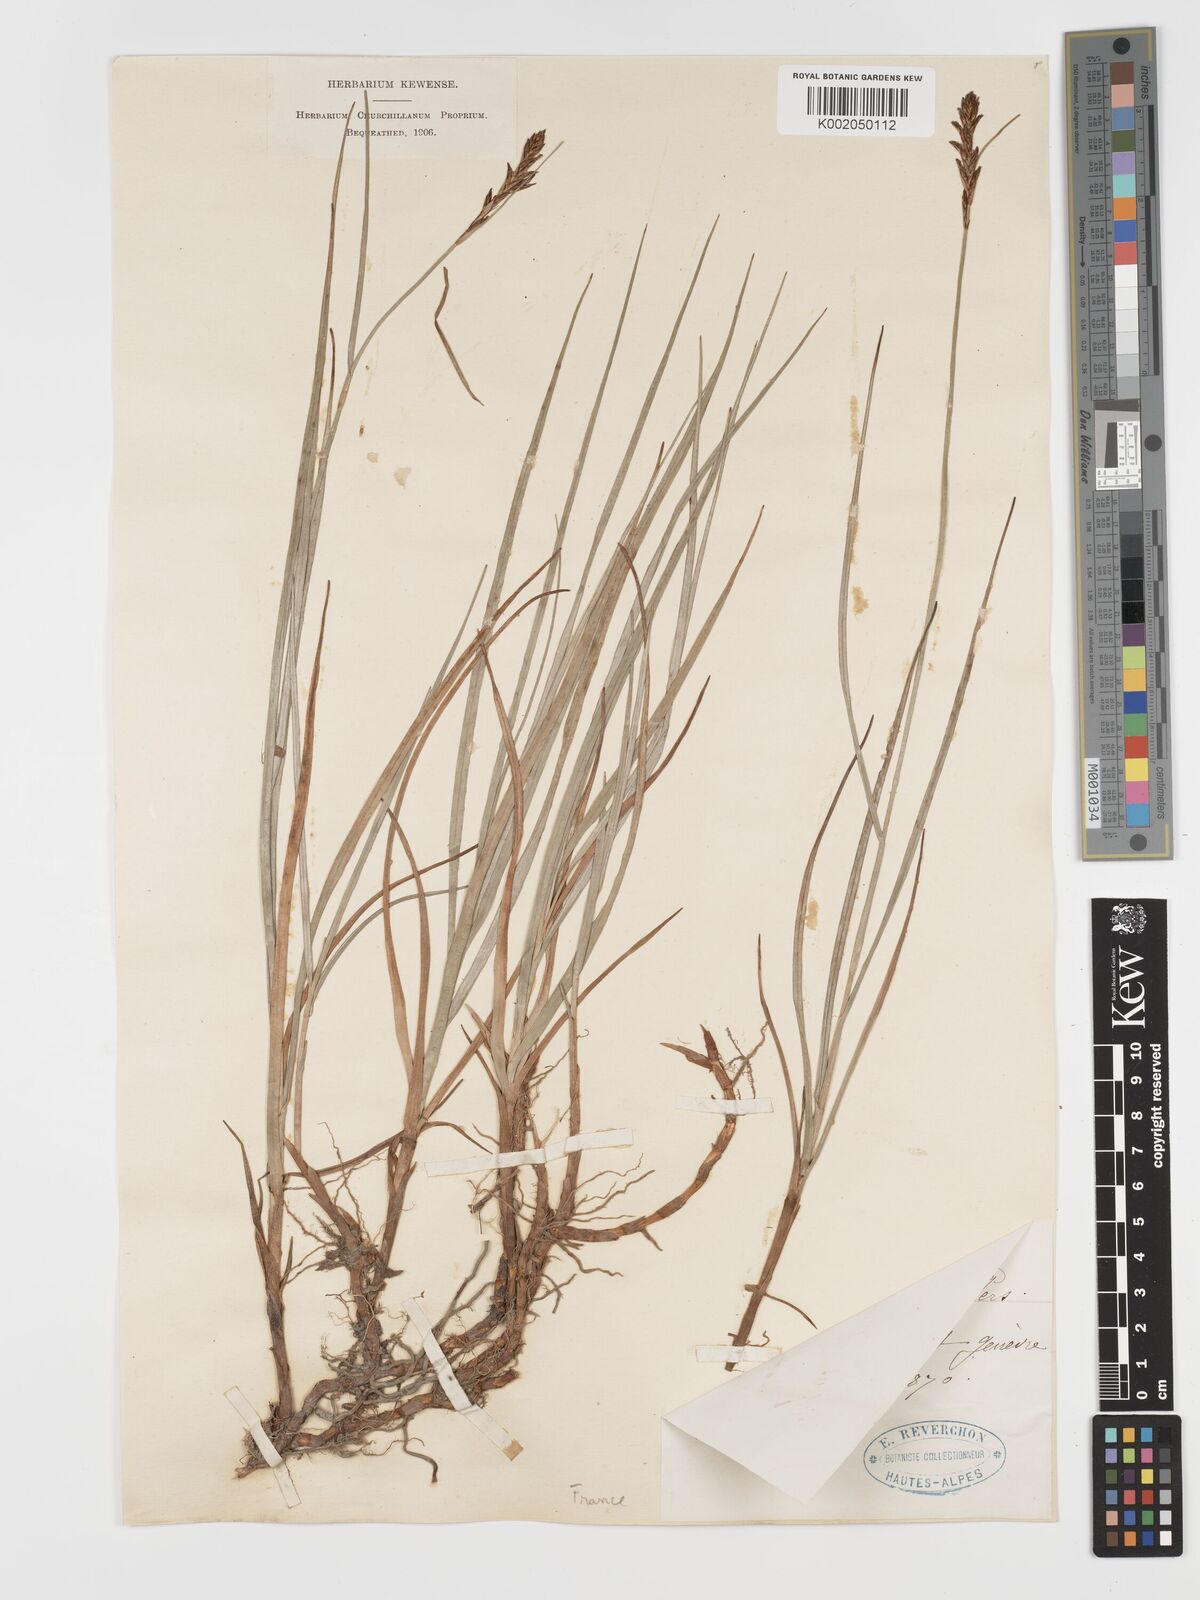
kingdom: Plantae
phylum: Tracheophyta
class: Liliopsida
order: Poales
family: Cyperaceae
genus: Blysmus
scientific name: Blysmus compressus
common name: Flat-sedge
